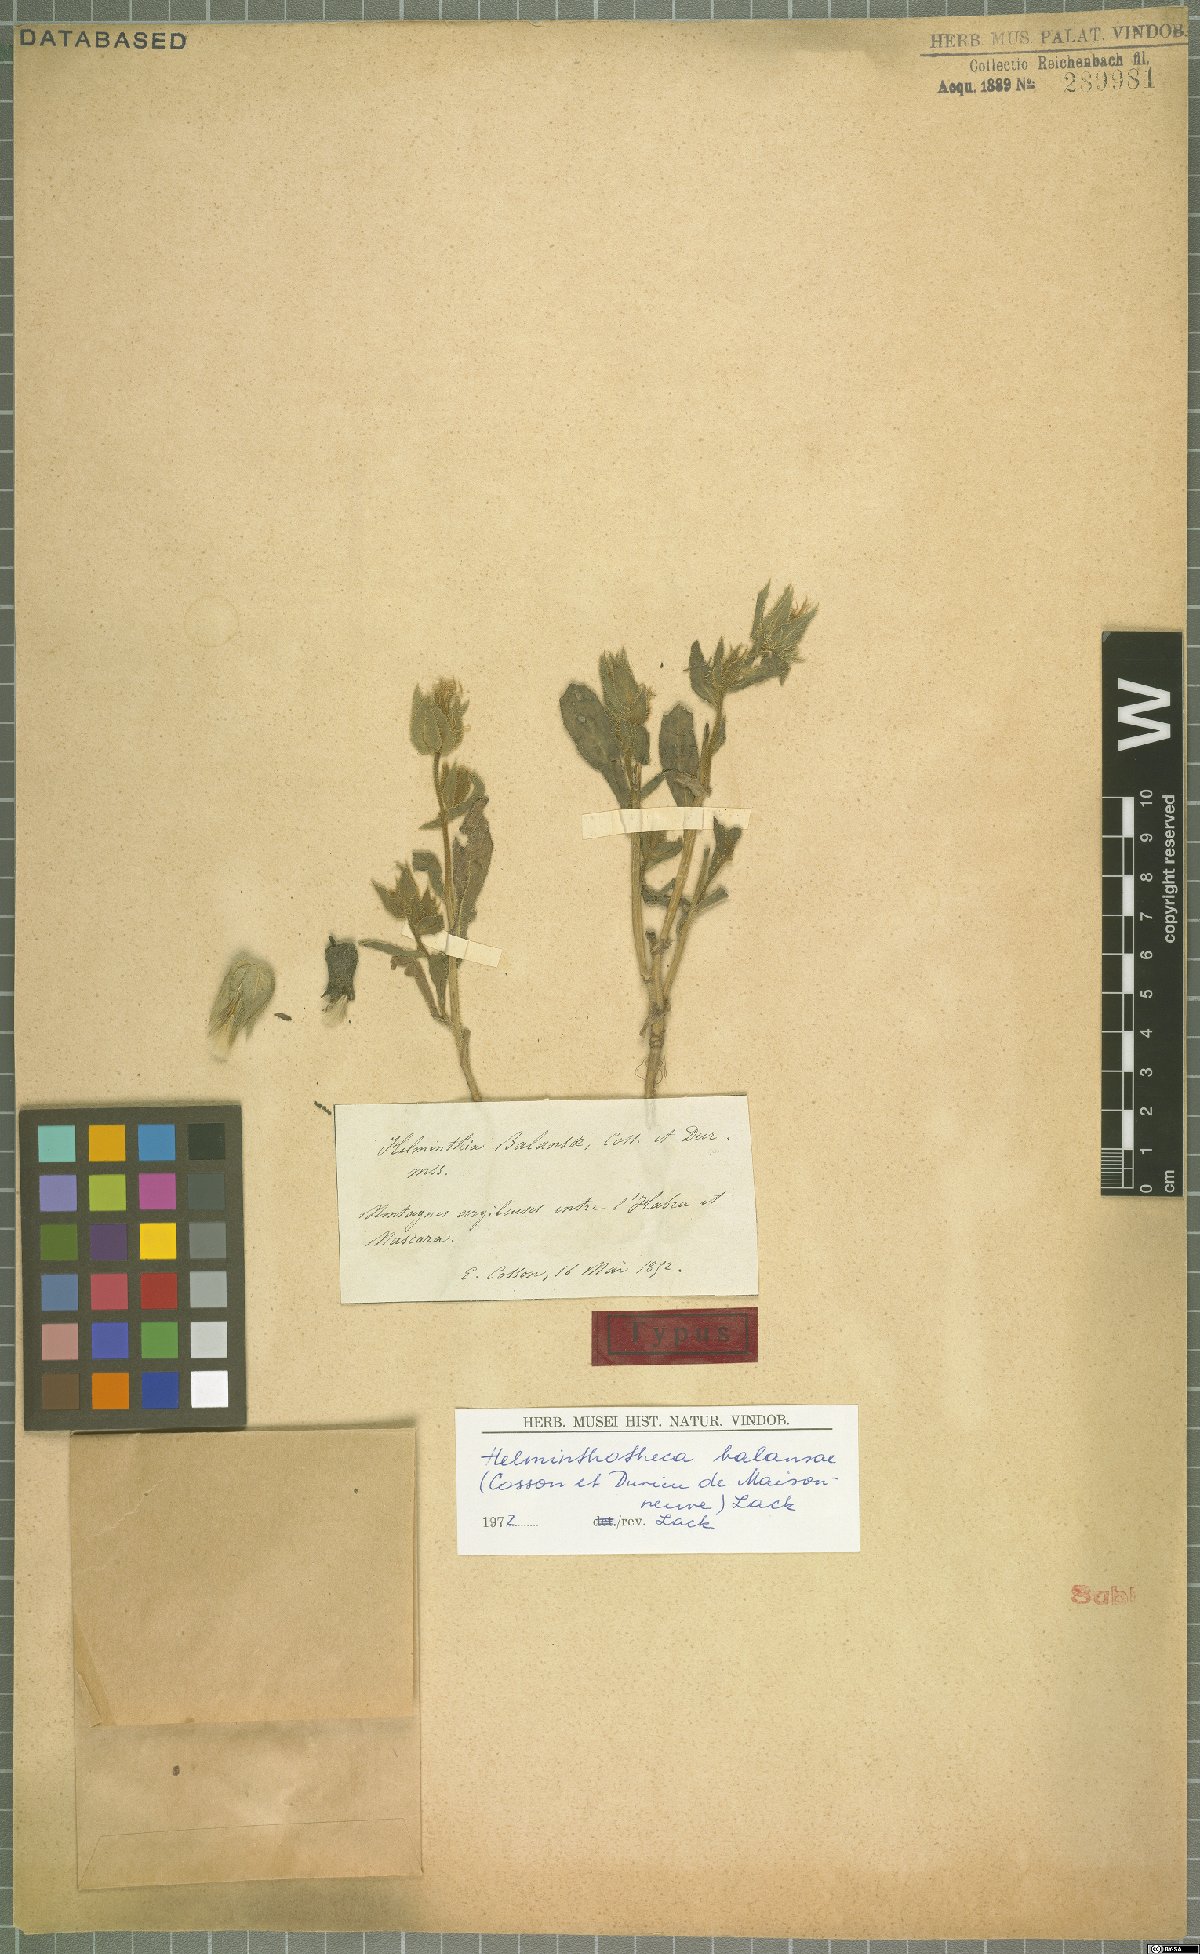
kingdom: Plantae
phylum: Tracheophyta
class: Magnoliopsida
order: Asterales
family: Asteraceae
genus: Helminthotheca
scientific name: Helminthotheca balansae
